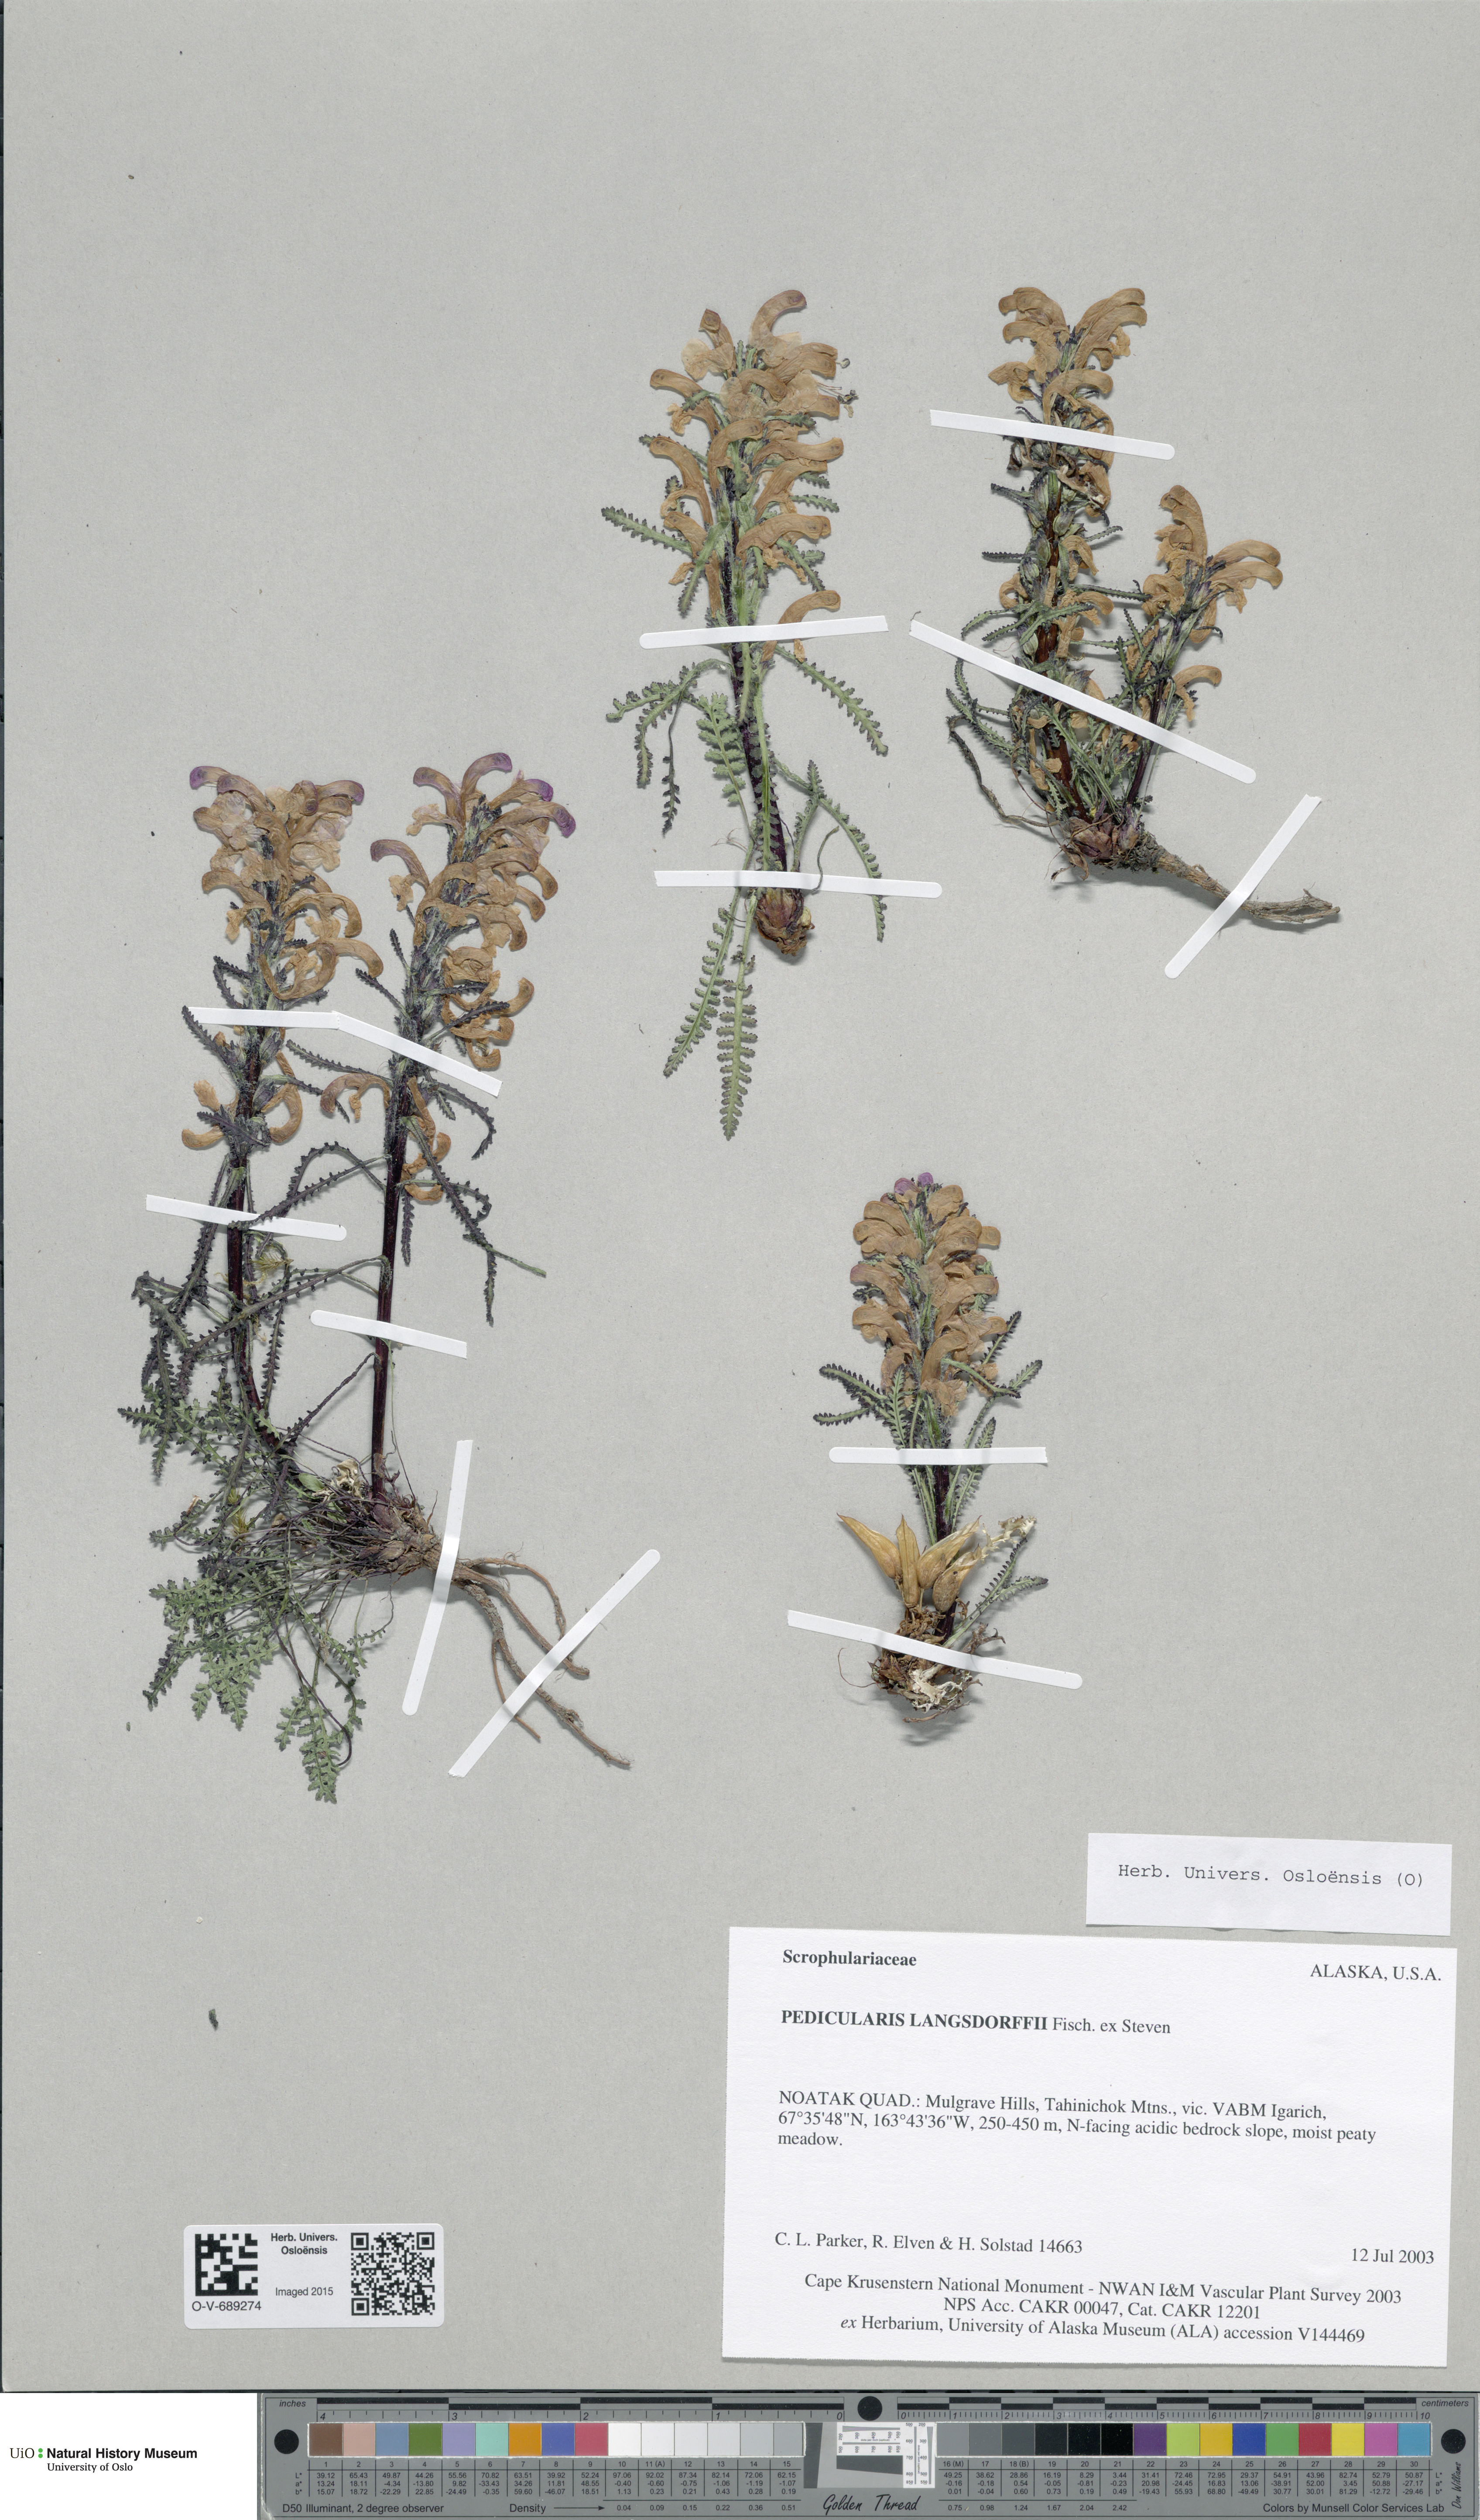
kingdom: Plantae
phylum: Tracheophyta
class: Magnoliopsida
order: Lamiales
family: Orobanchaceae
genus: Pedicularis
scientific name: Pedicularis langsdorffii
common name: Langsdorff's lousewort
